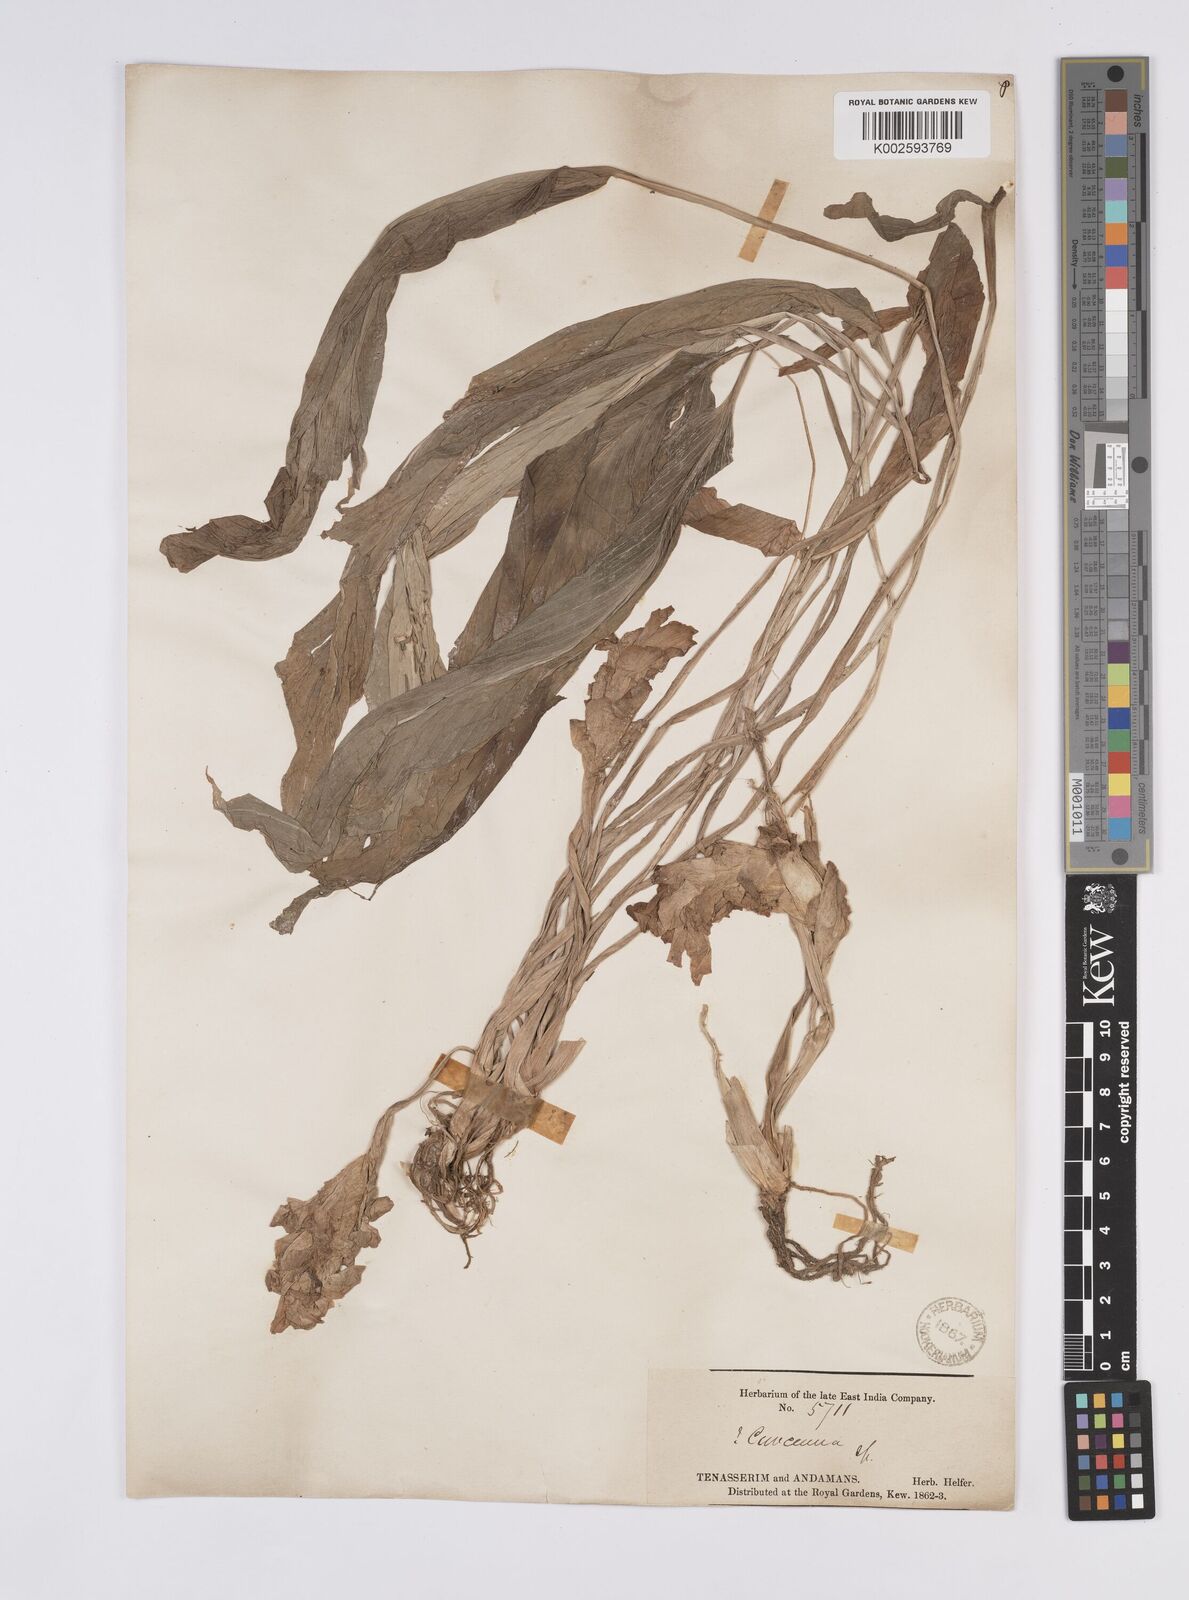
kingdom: Plantae
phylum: Tracheophyta
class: Liliopsida
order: Zingiberales
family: Zingiberaceae
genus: Curcuma
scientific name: Curcuma
